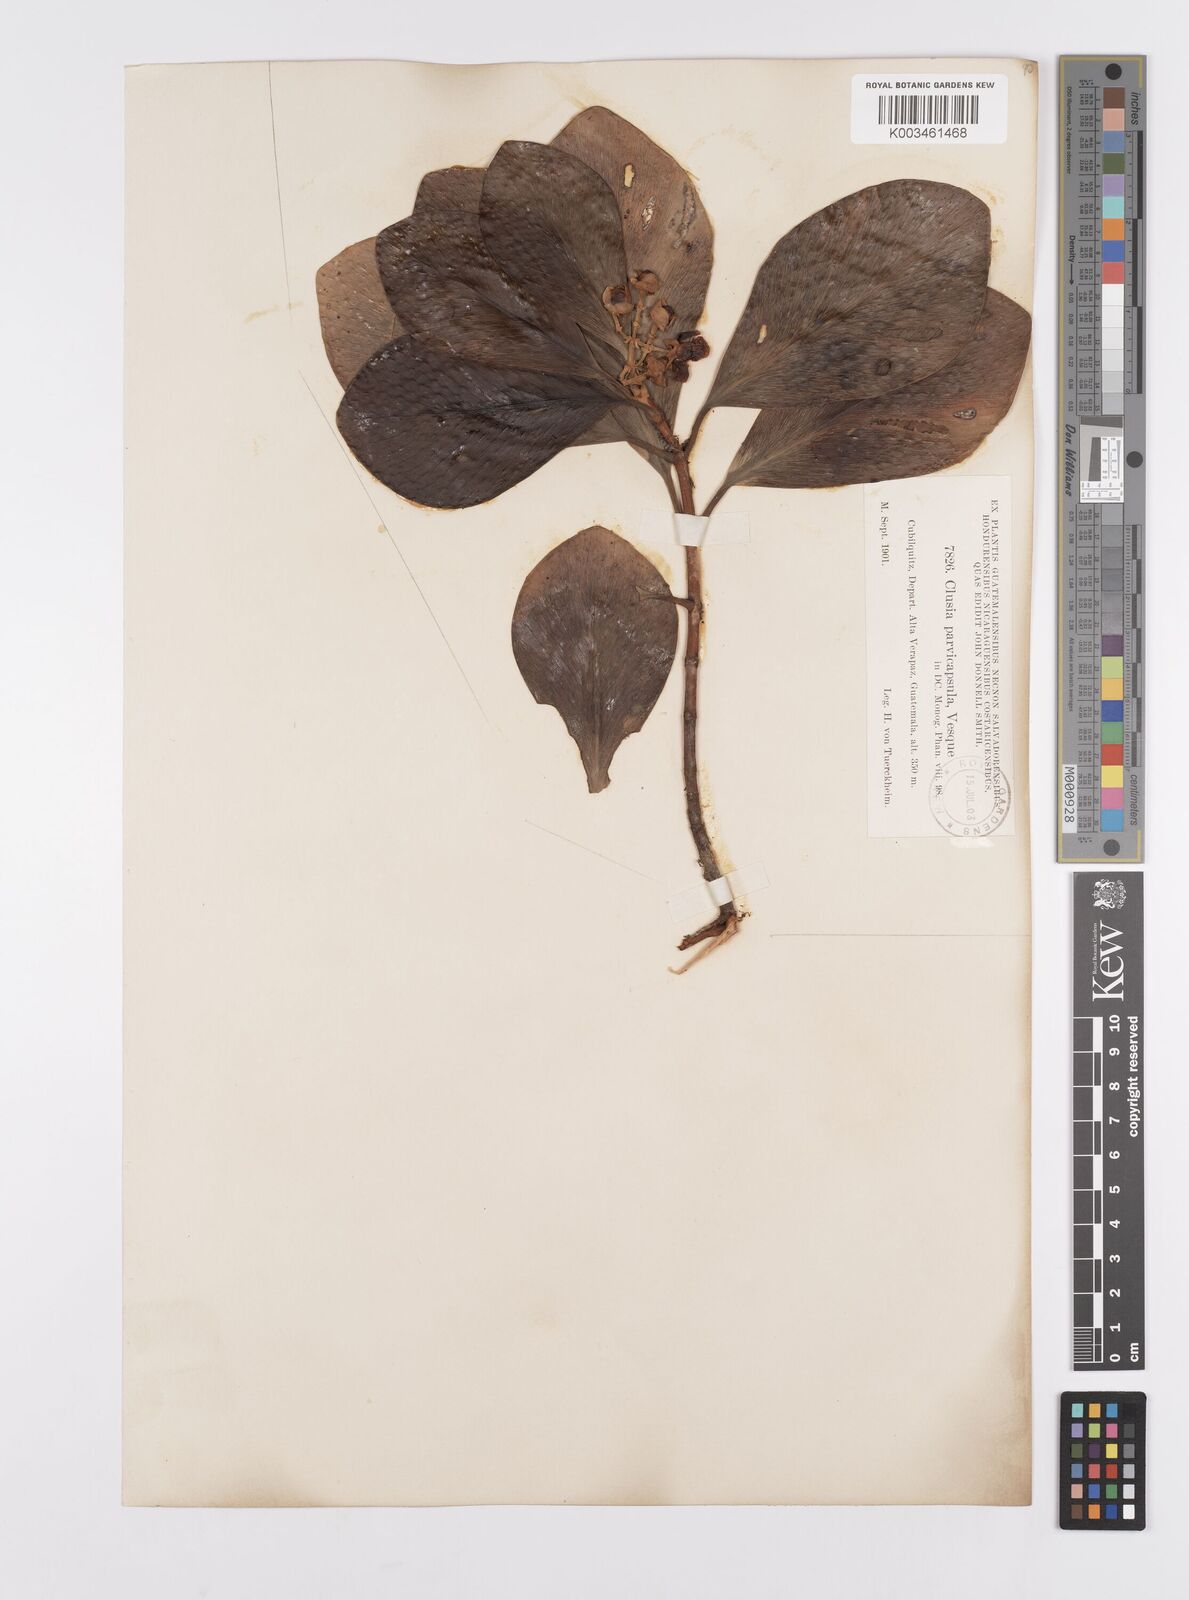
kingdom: Plantae
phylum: Tracheophyta
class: Magnoliopsida
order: Malpighiales
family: Clusiaceae
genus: Clusia
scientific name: Clusia minor
